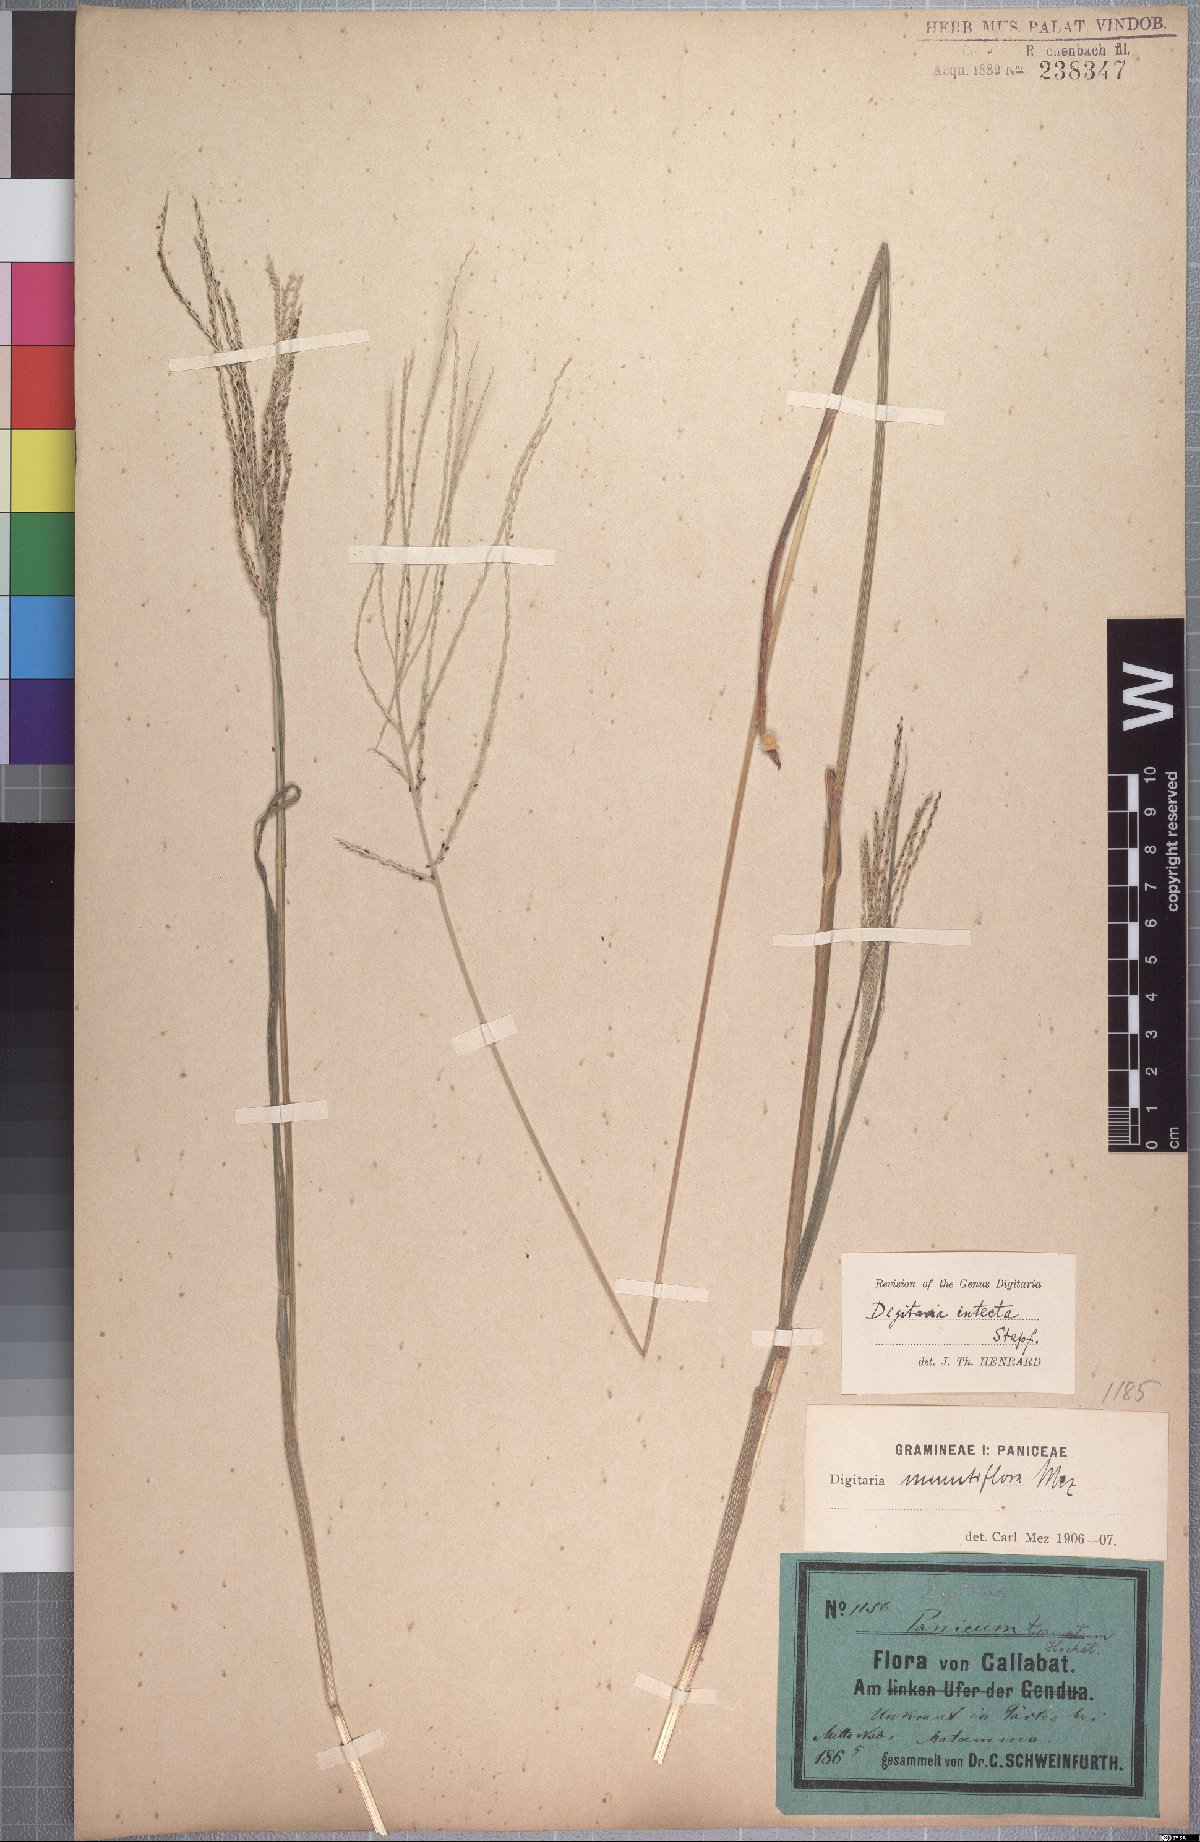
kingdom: Plantae
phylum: Tracheophyta
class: Liliopsida
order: Poales
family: Poaceae
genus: Digitaria
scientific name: Digitaria intecta
